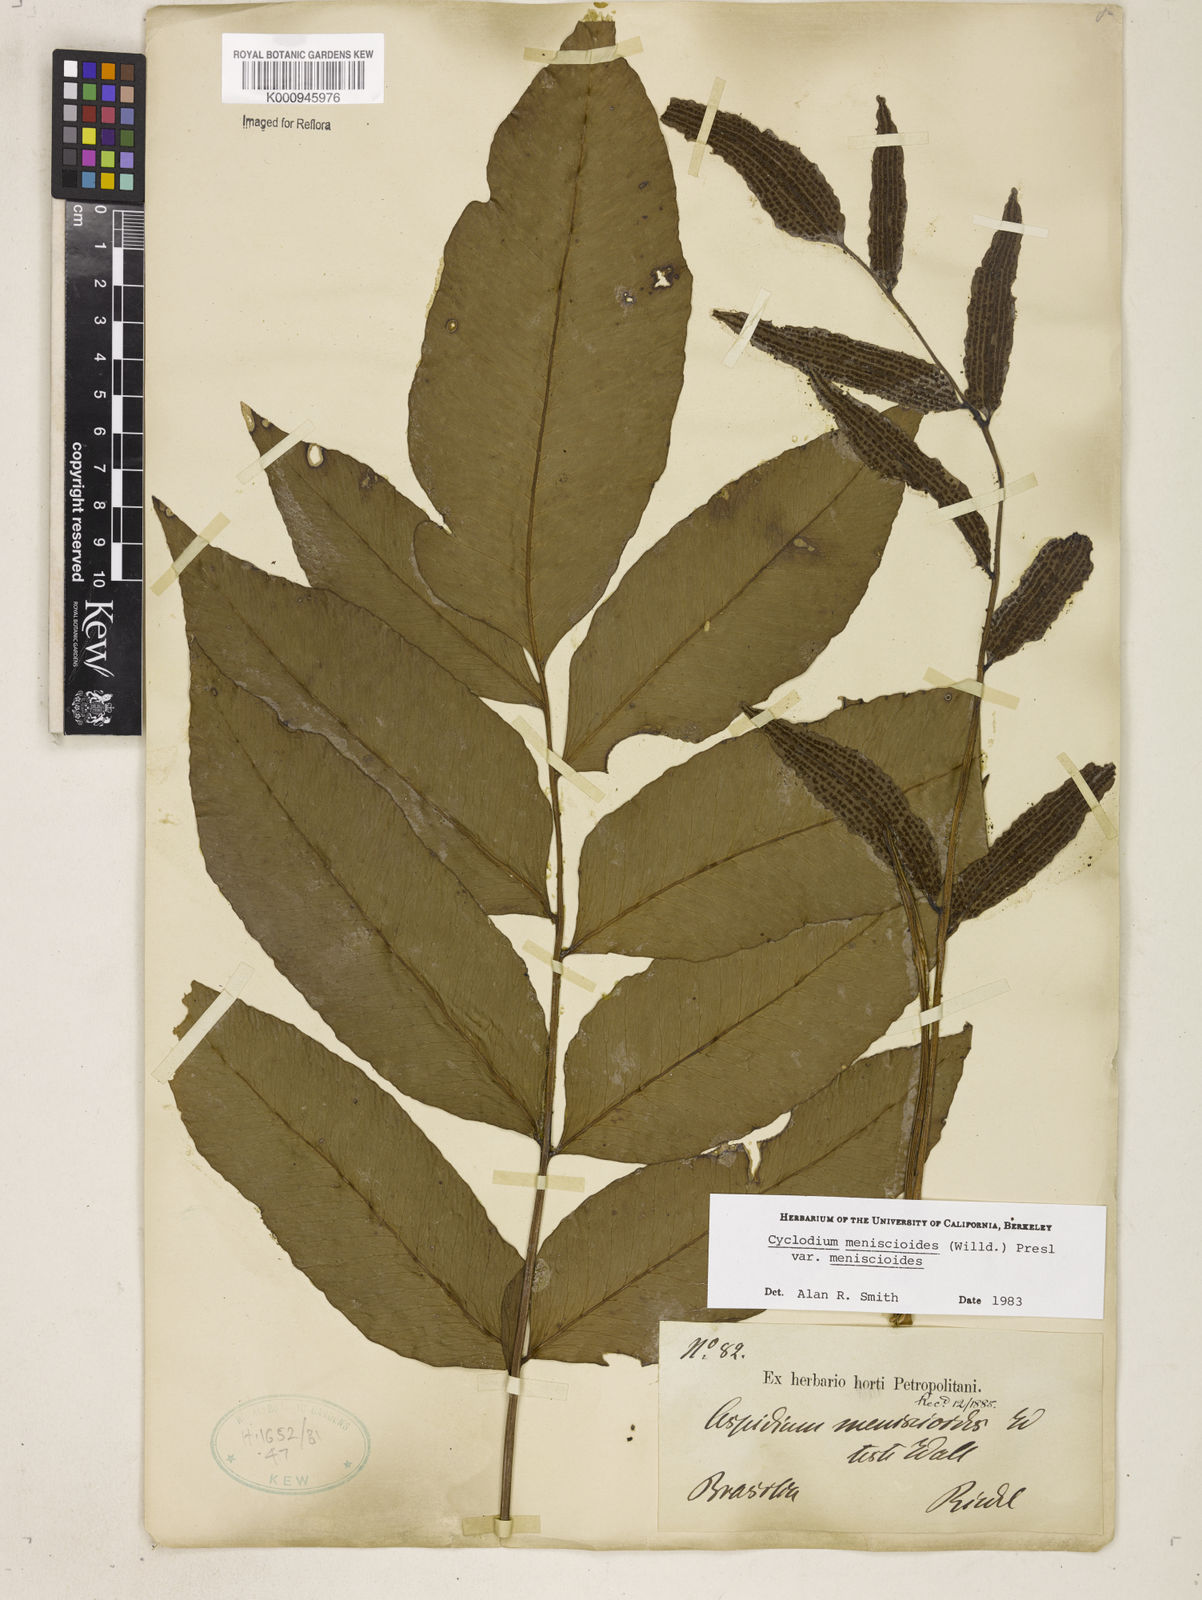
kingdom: Plantae
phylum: Tracheophyta
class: Polypodiopsida
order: Polypodiales
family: Dryopteridaceae
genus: Cyclodium
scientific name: Cyclodium meniscioides
